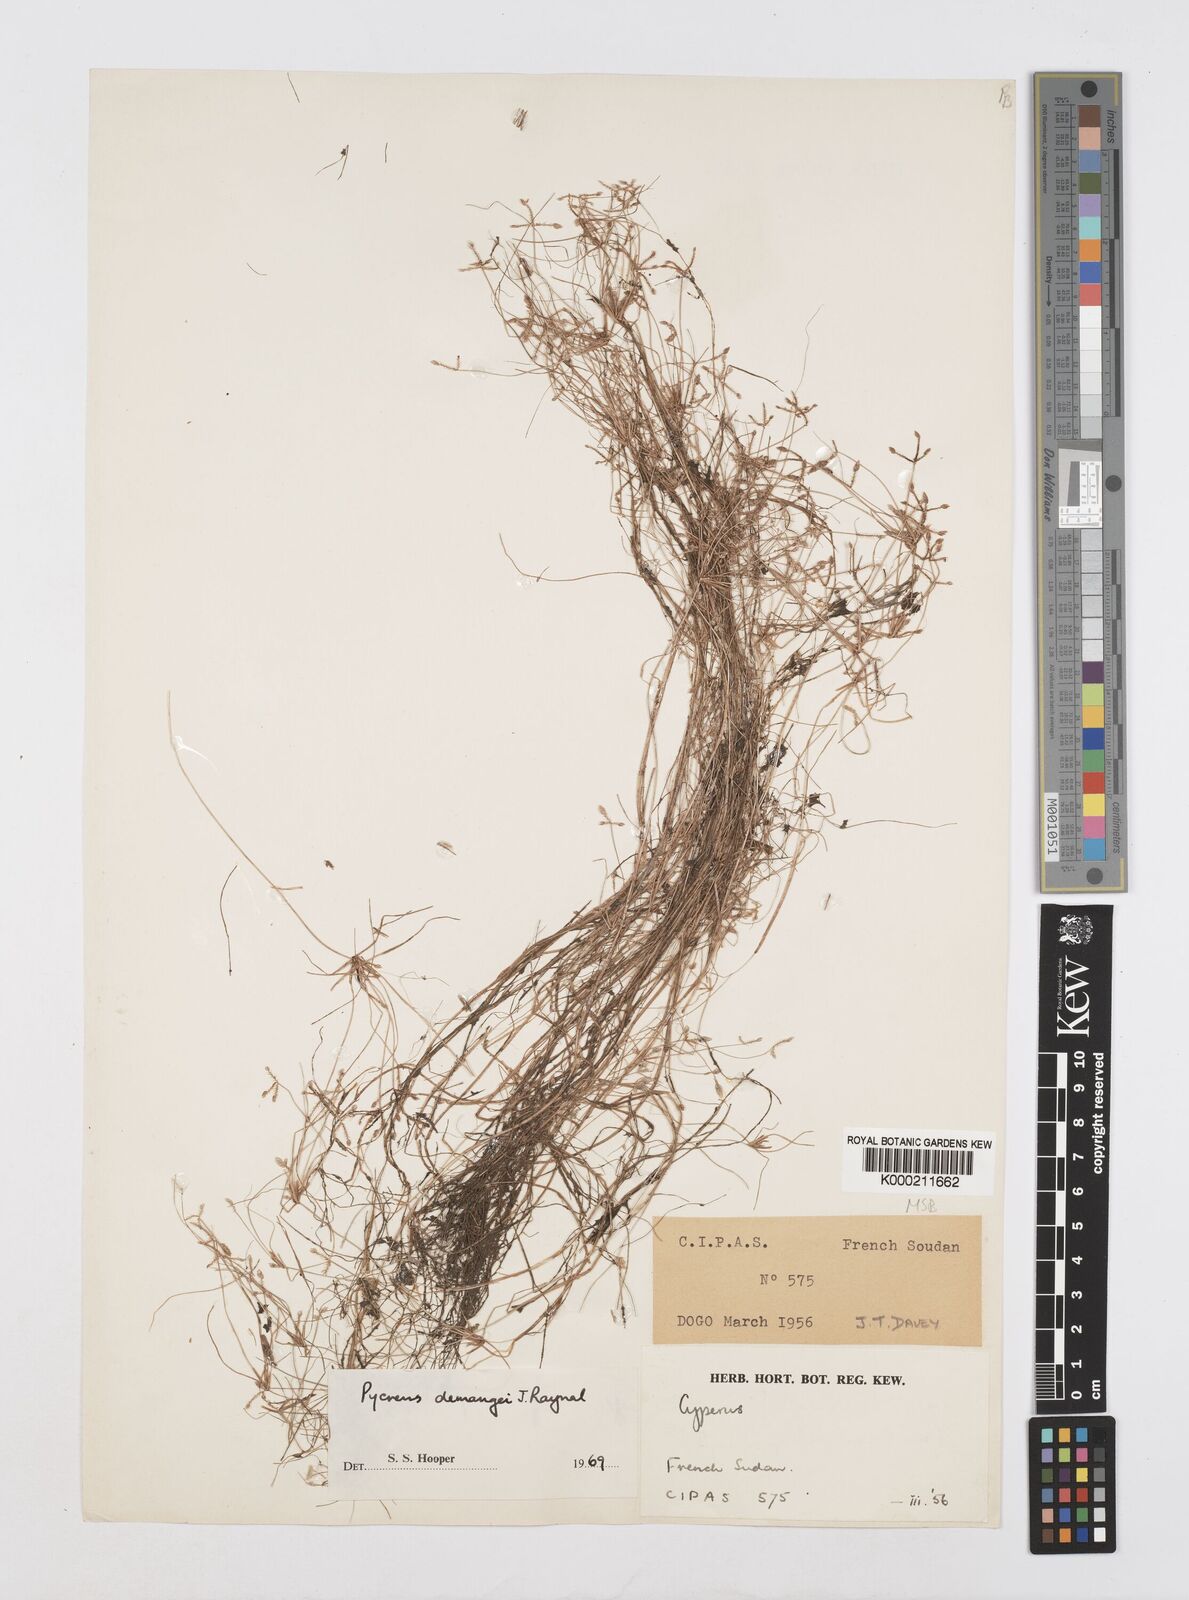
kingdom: Plantae
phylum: Tracheophyta
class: Liliopsida
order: Poales
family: Cyperaceae
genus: Cyperus
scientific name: Cyperus demangei
